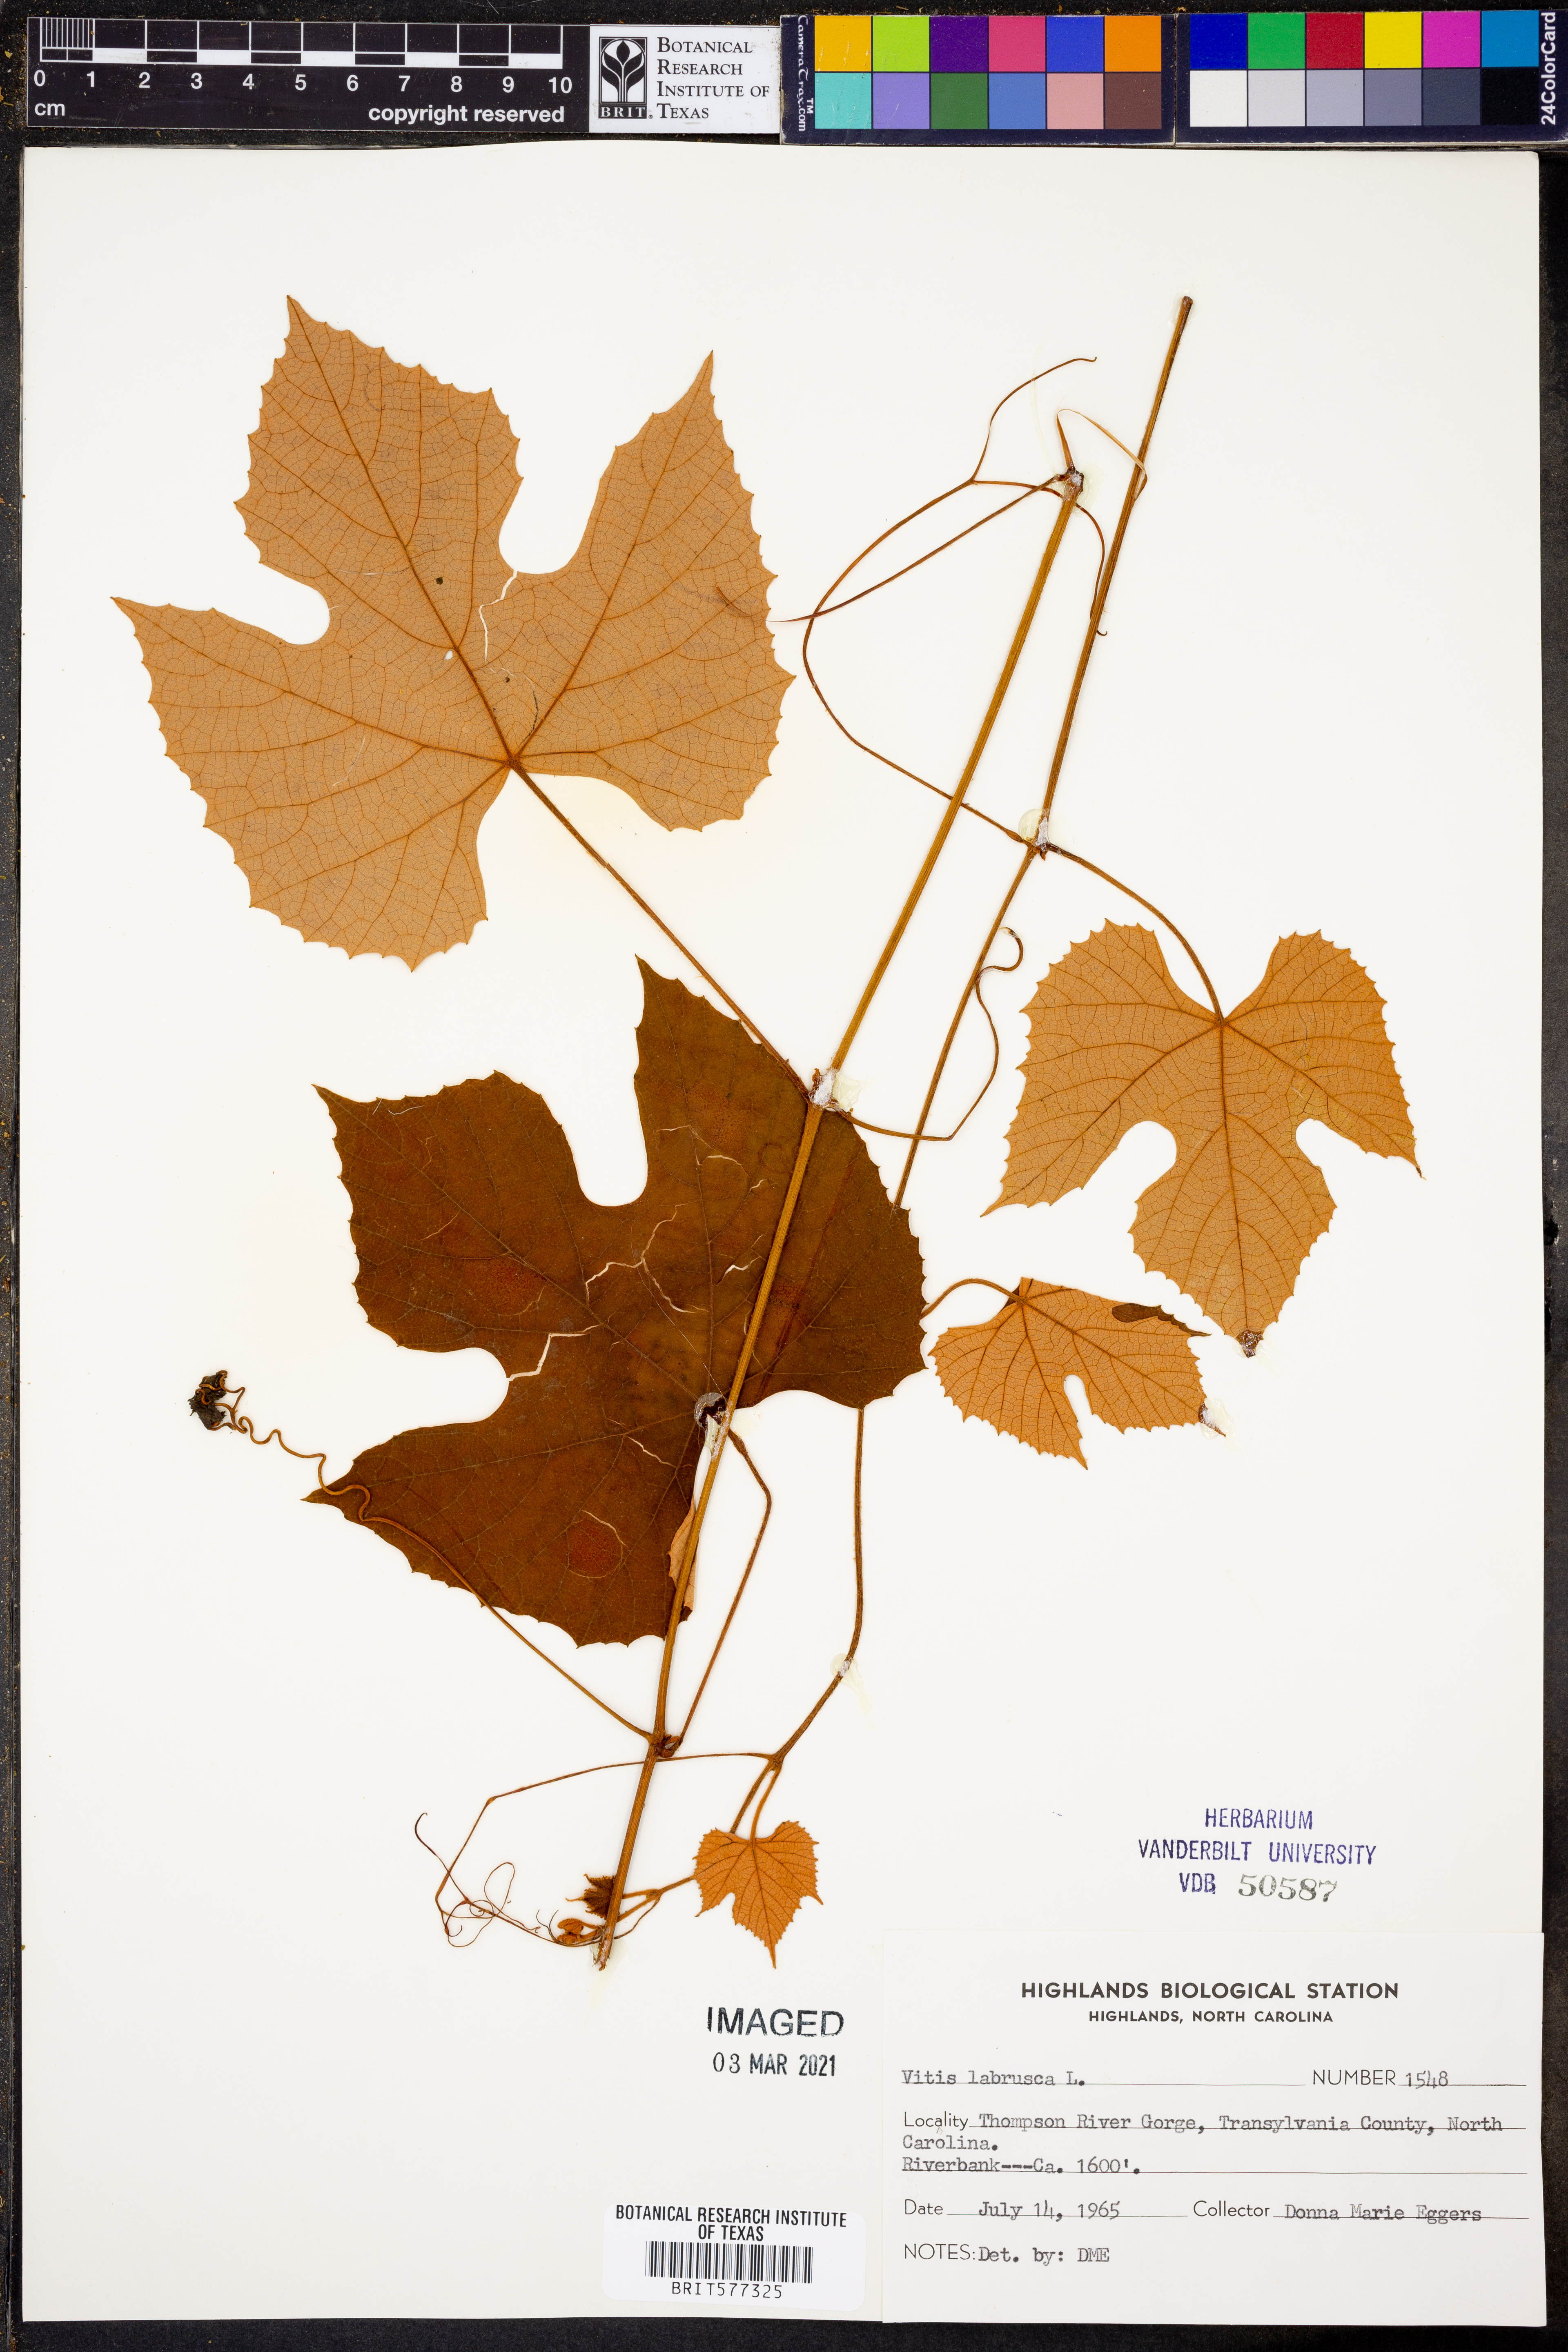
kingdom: Plantae
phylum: Tracheophyta
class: Magnoliopsida
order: Vitales
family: Vitaceae
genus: Vitis
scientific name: Vitis labrusca
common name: Concord grape
